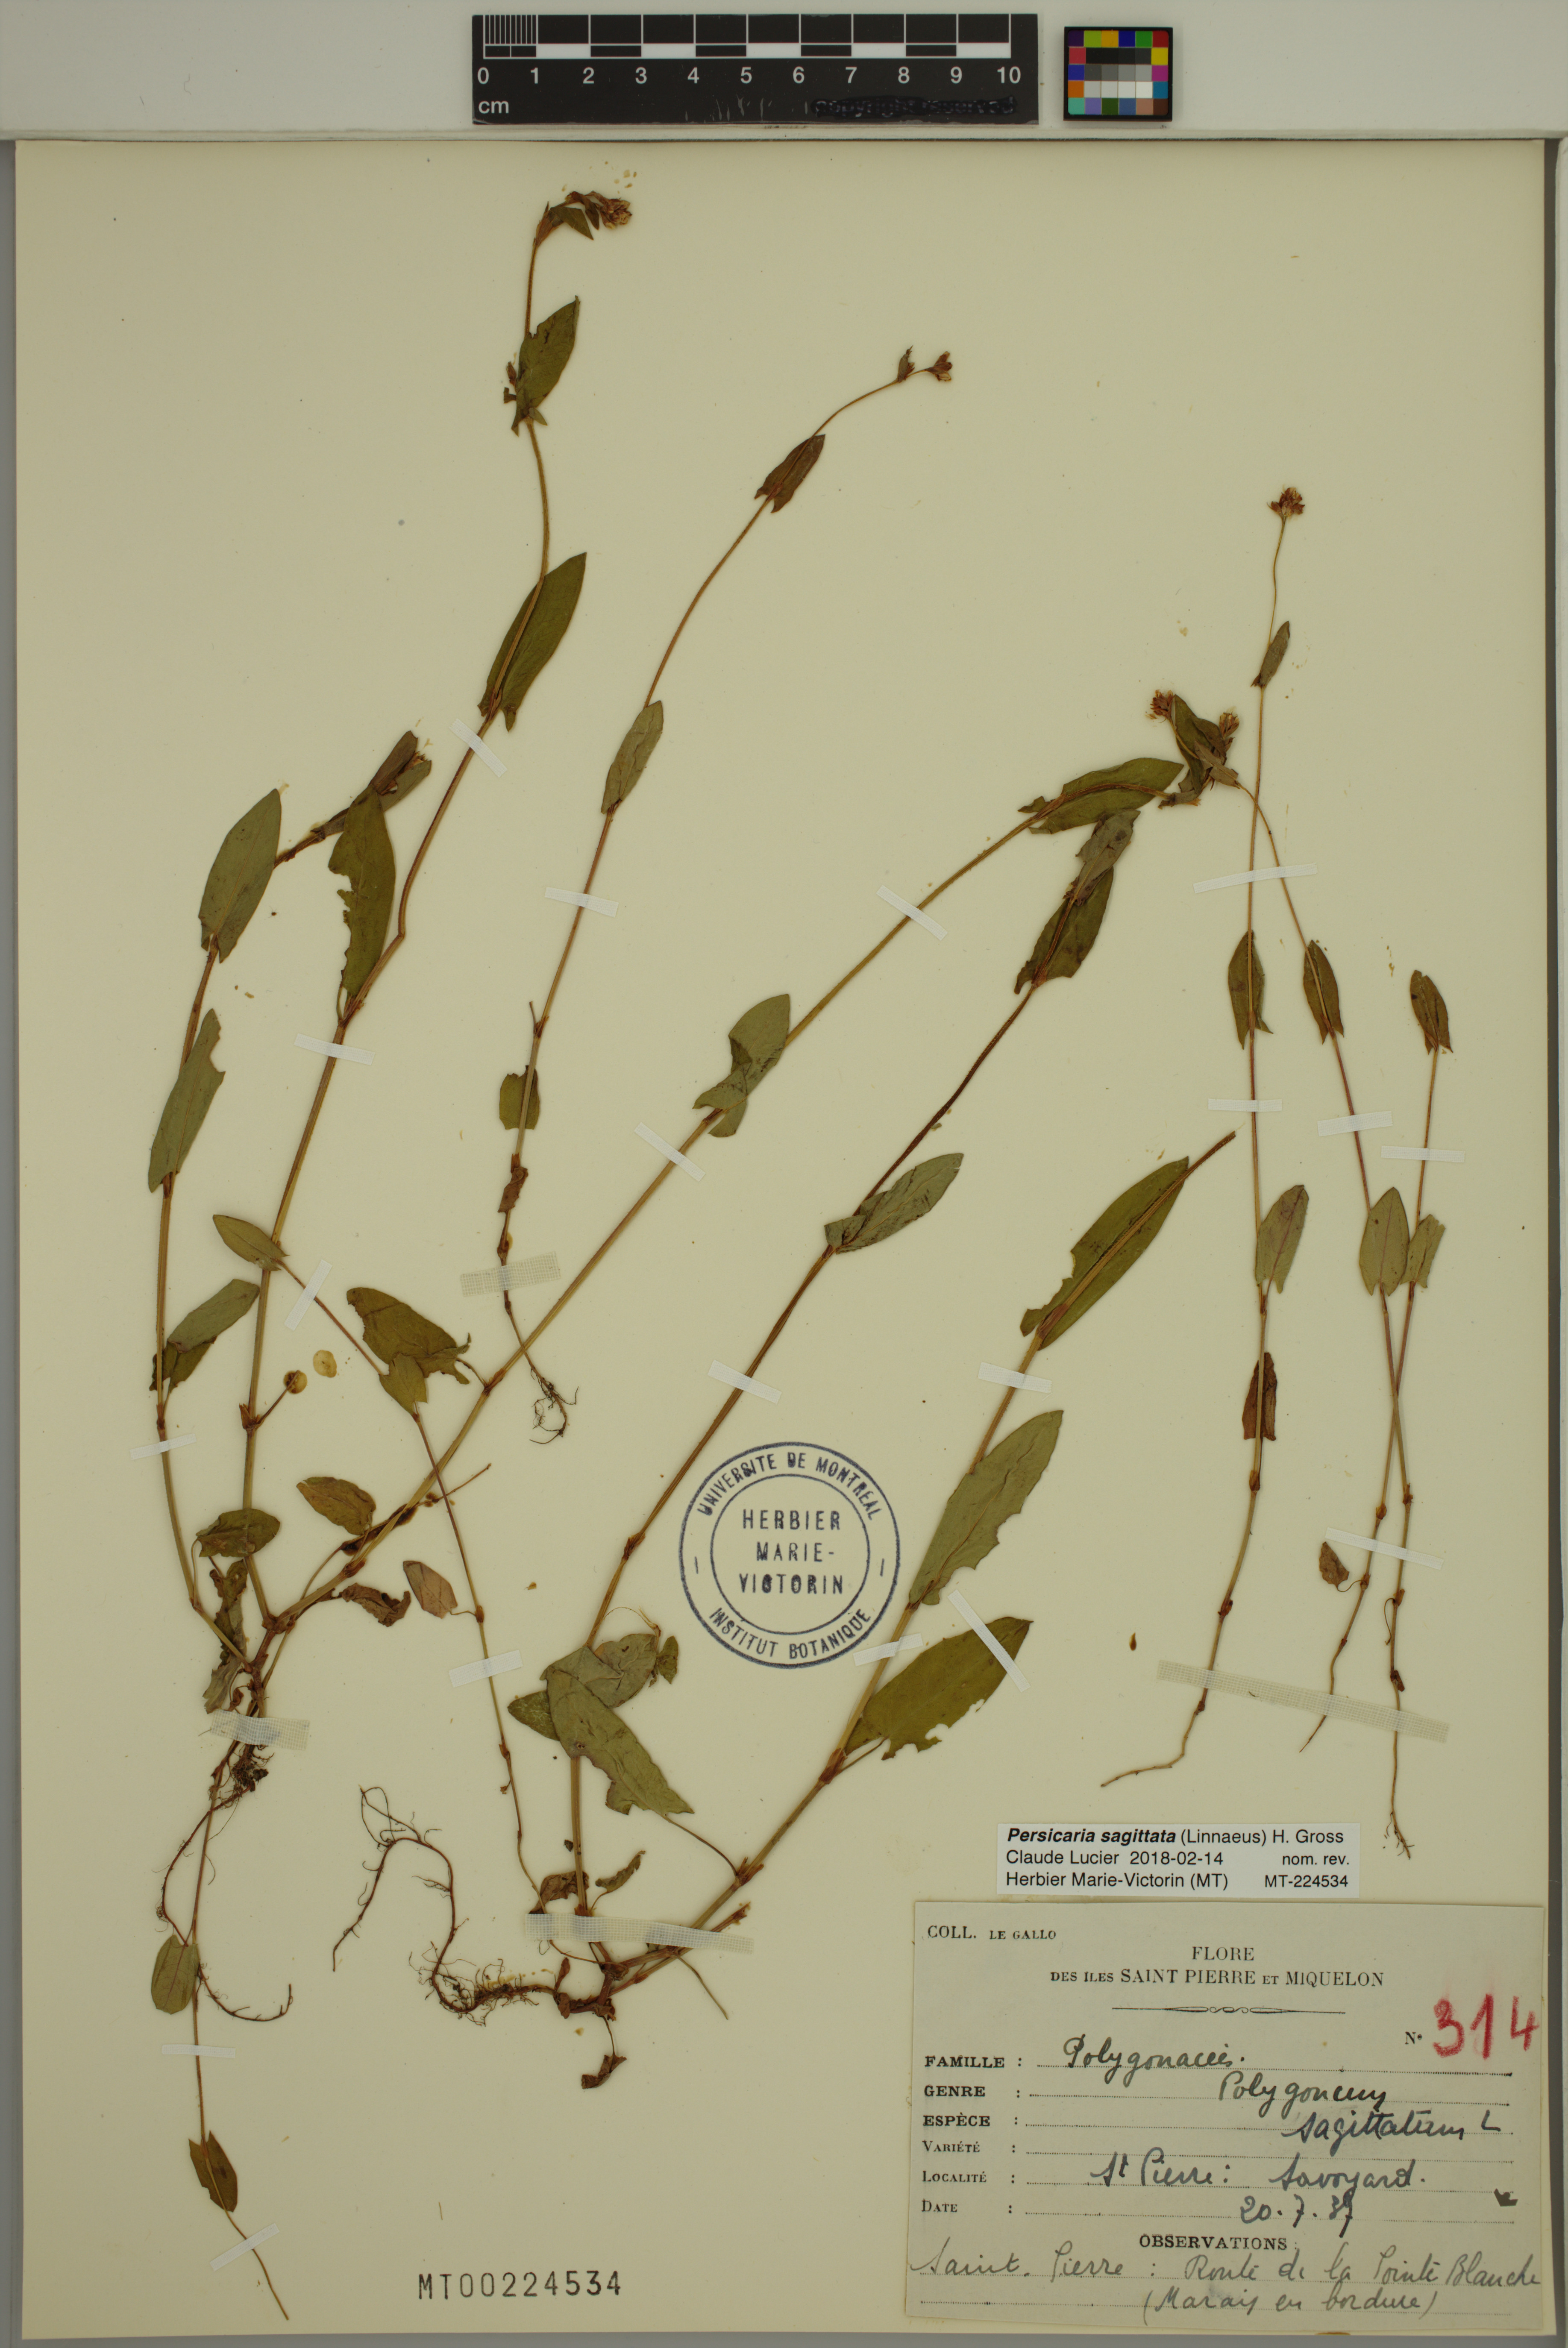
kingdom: Plantae
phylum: Tracheophyta
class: Magnoliopsida
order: Caryophyllales
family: Polygonaceae
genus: Persicaria
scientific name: Persicaria sagittata
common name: American tearthumb
